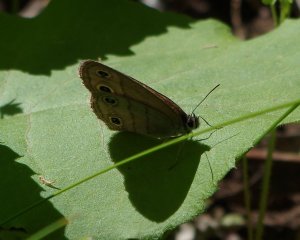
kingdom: Animalia
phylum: Arthropoda
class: Insecta
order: Lepidoptera
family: Nymphalidae
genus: Euptychia
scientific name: Euptychia cymela
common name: Little Wood Satyr
